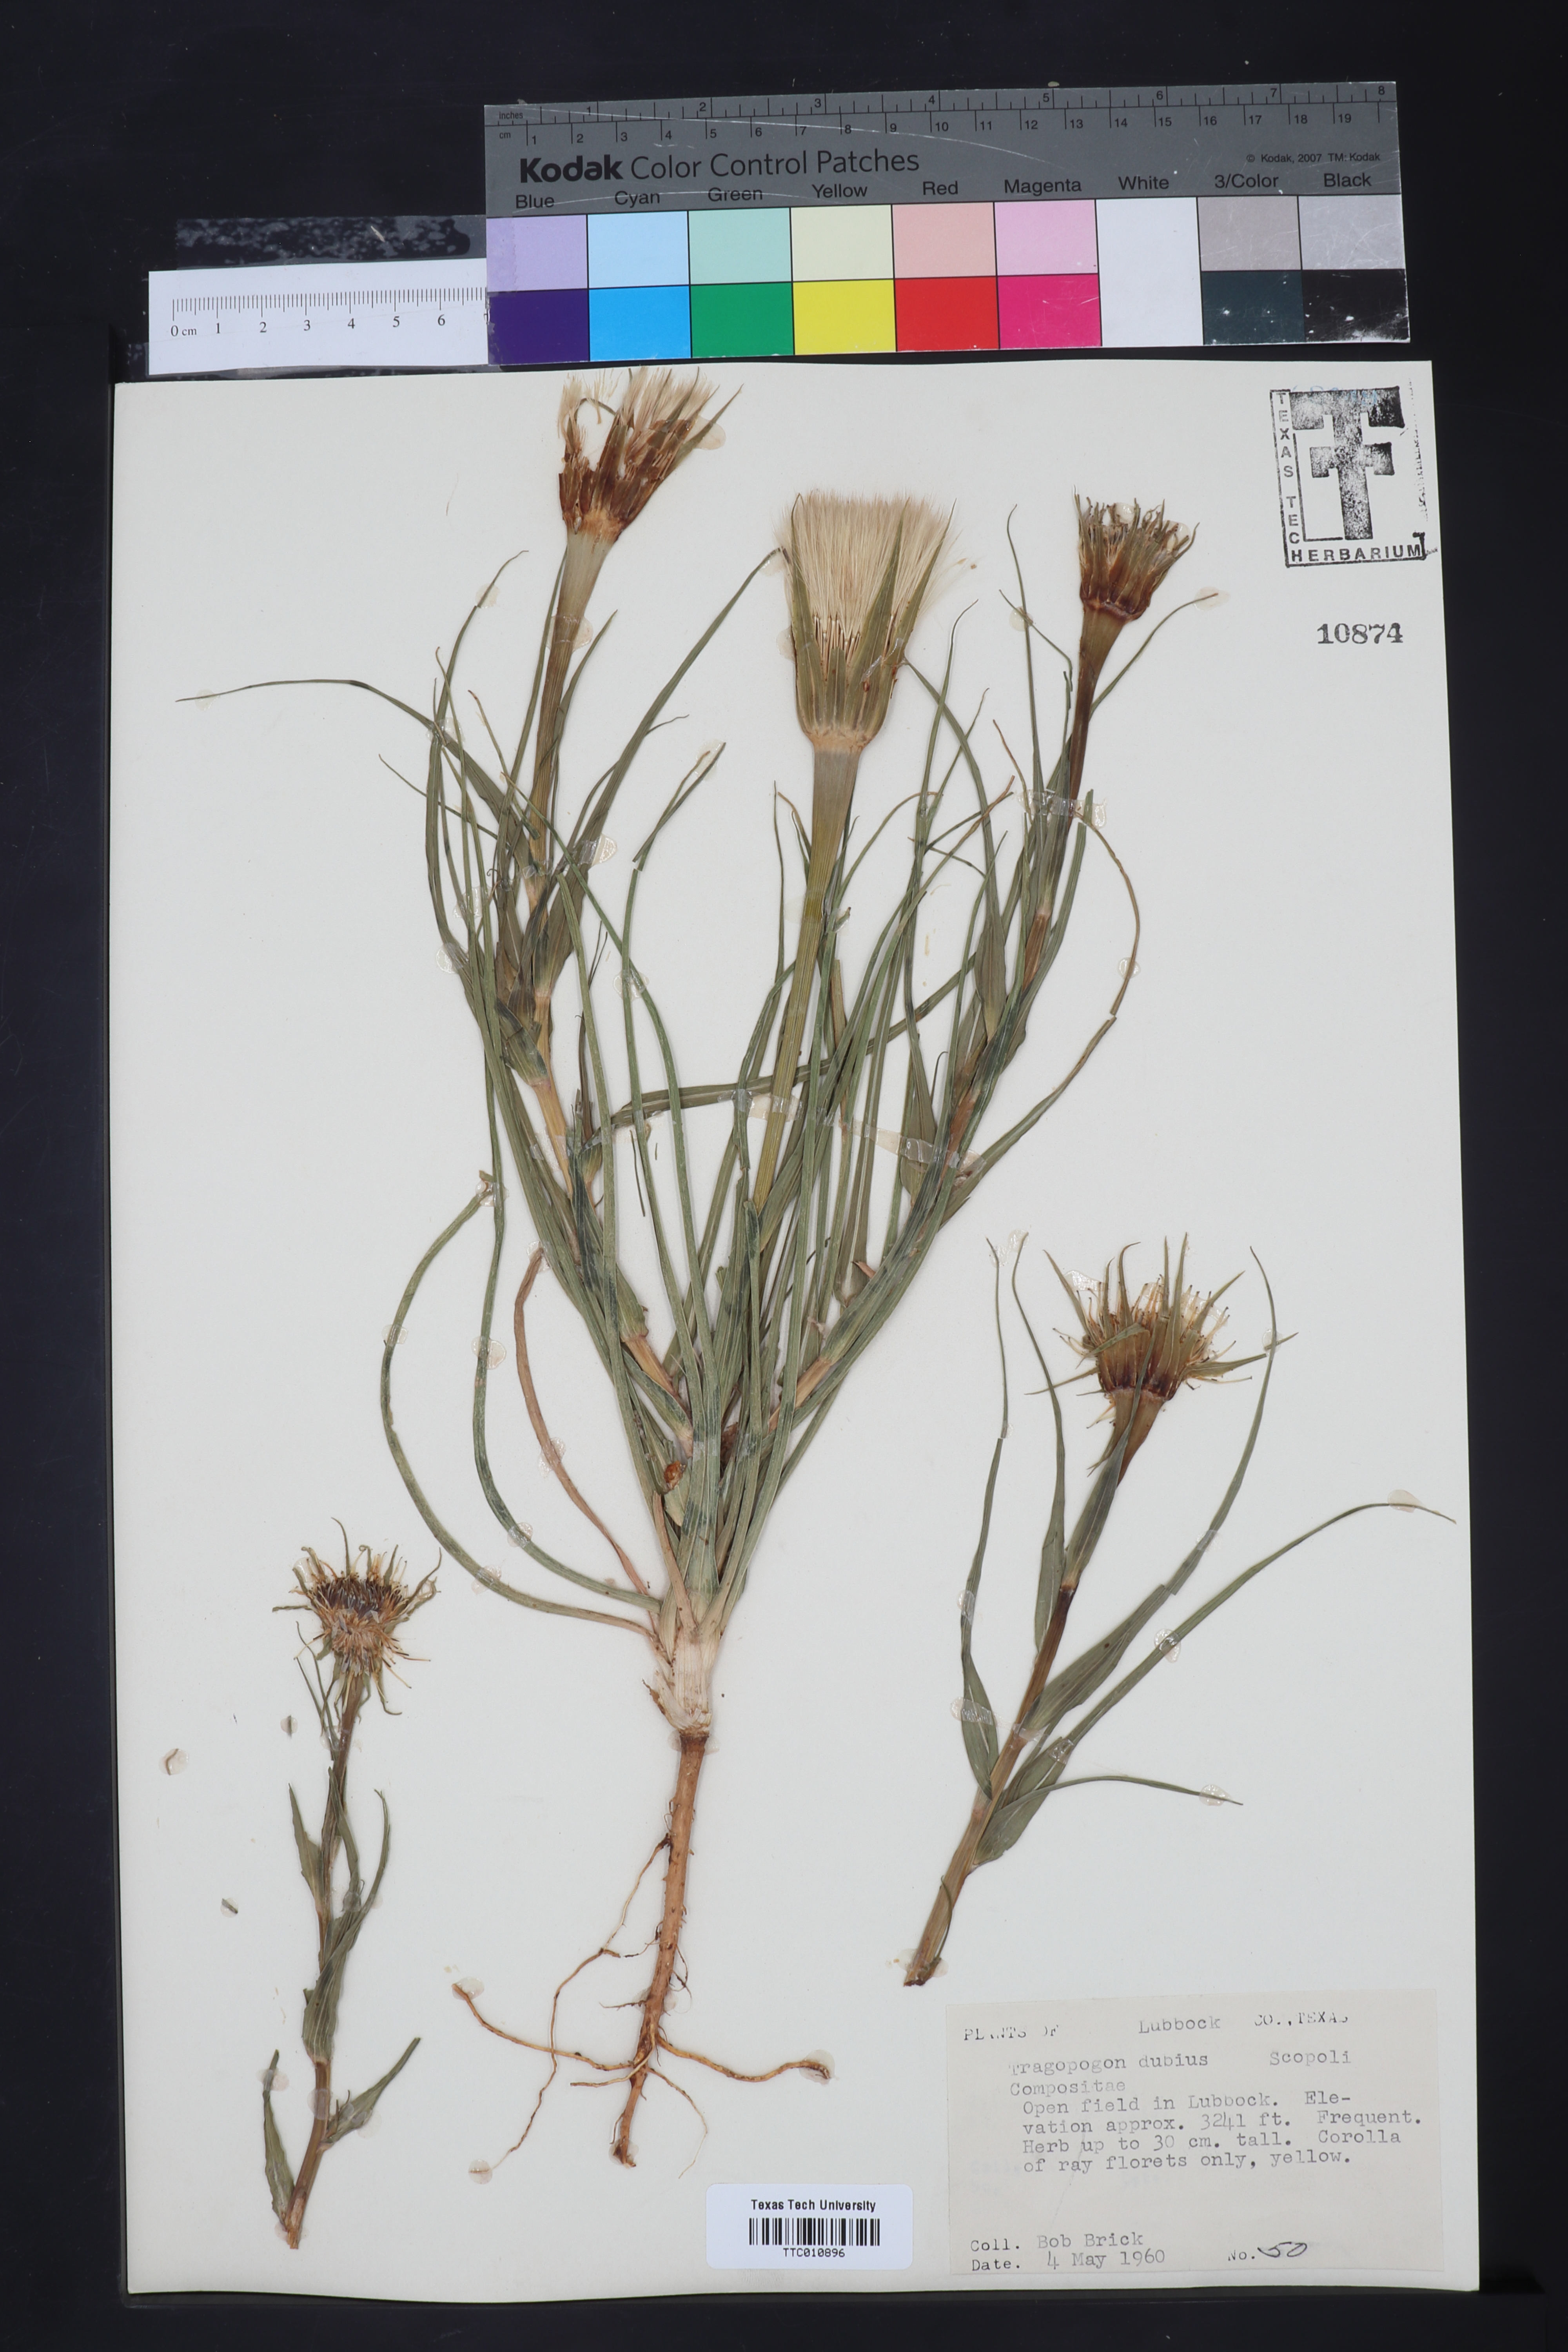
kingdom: Plantae
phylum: Tracheophyta
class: Magnoliopsida
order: Asterales
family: Asteraceae
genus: Tragopogon
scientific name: Tragopogon dubius
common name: Yellow salsify
